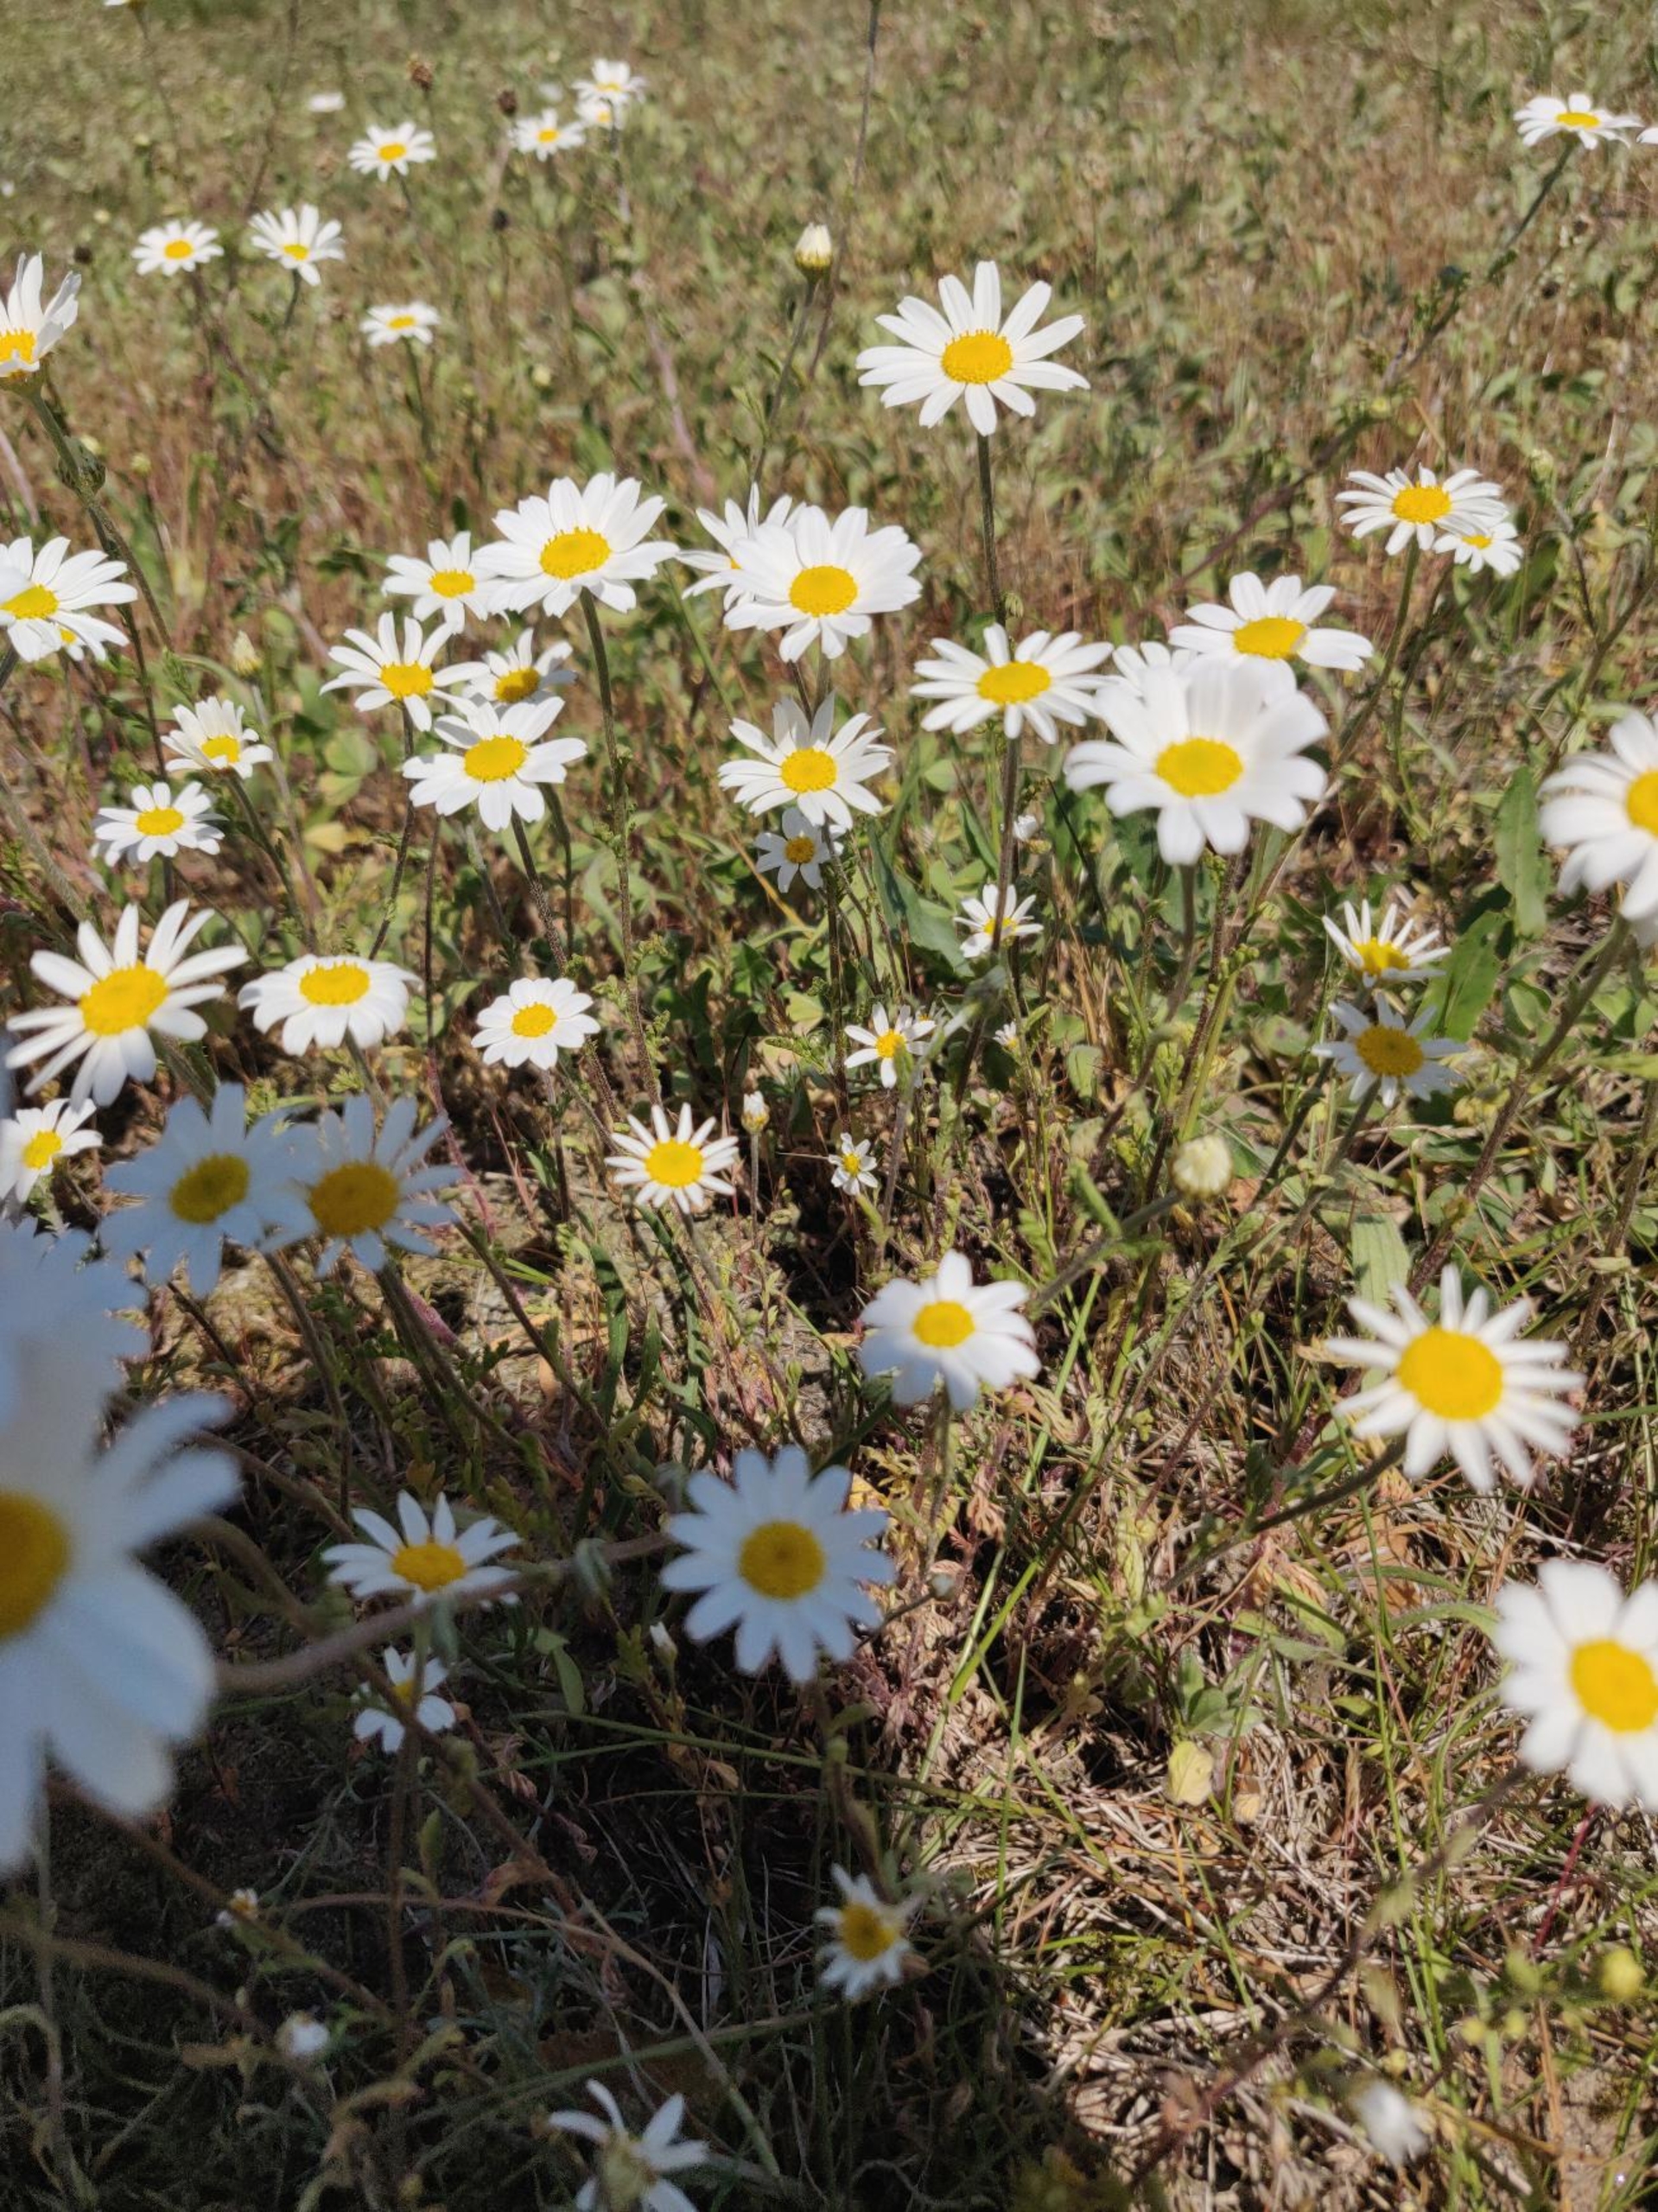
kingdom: Plantae
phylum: Tracheophyta
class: Magnoliopsida
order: Asterales
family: Asteraceae
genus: Anthemis
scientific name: Anthemis arvensis
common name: Ager-gåseurt
